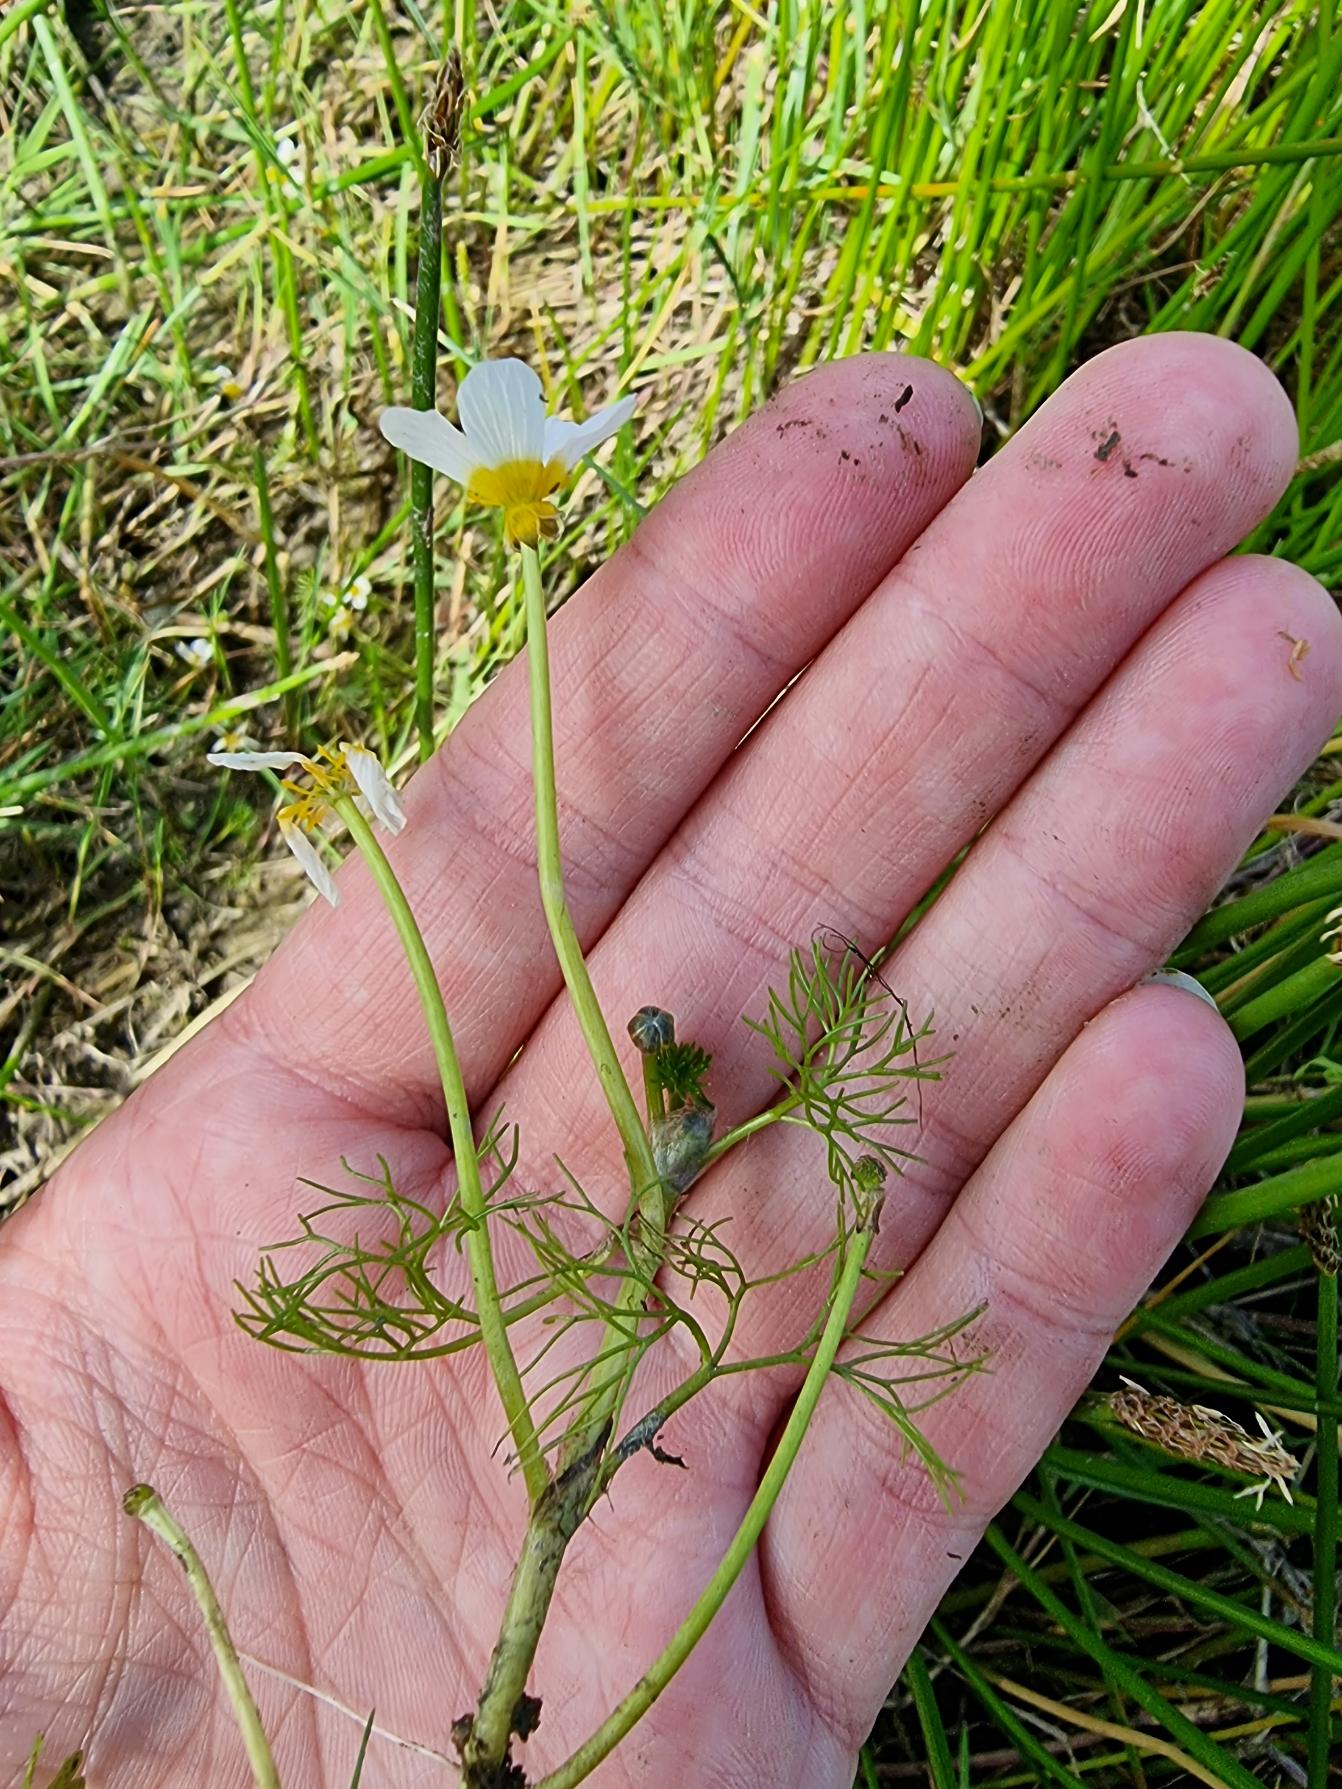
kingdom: Plantae
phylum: Tracheophyta
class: Magnoliopsida
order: Ranunculales
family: Ranunculaceae
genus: Ranunculus
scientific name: Ranunculus
